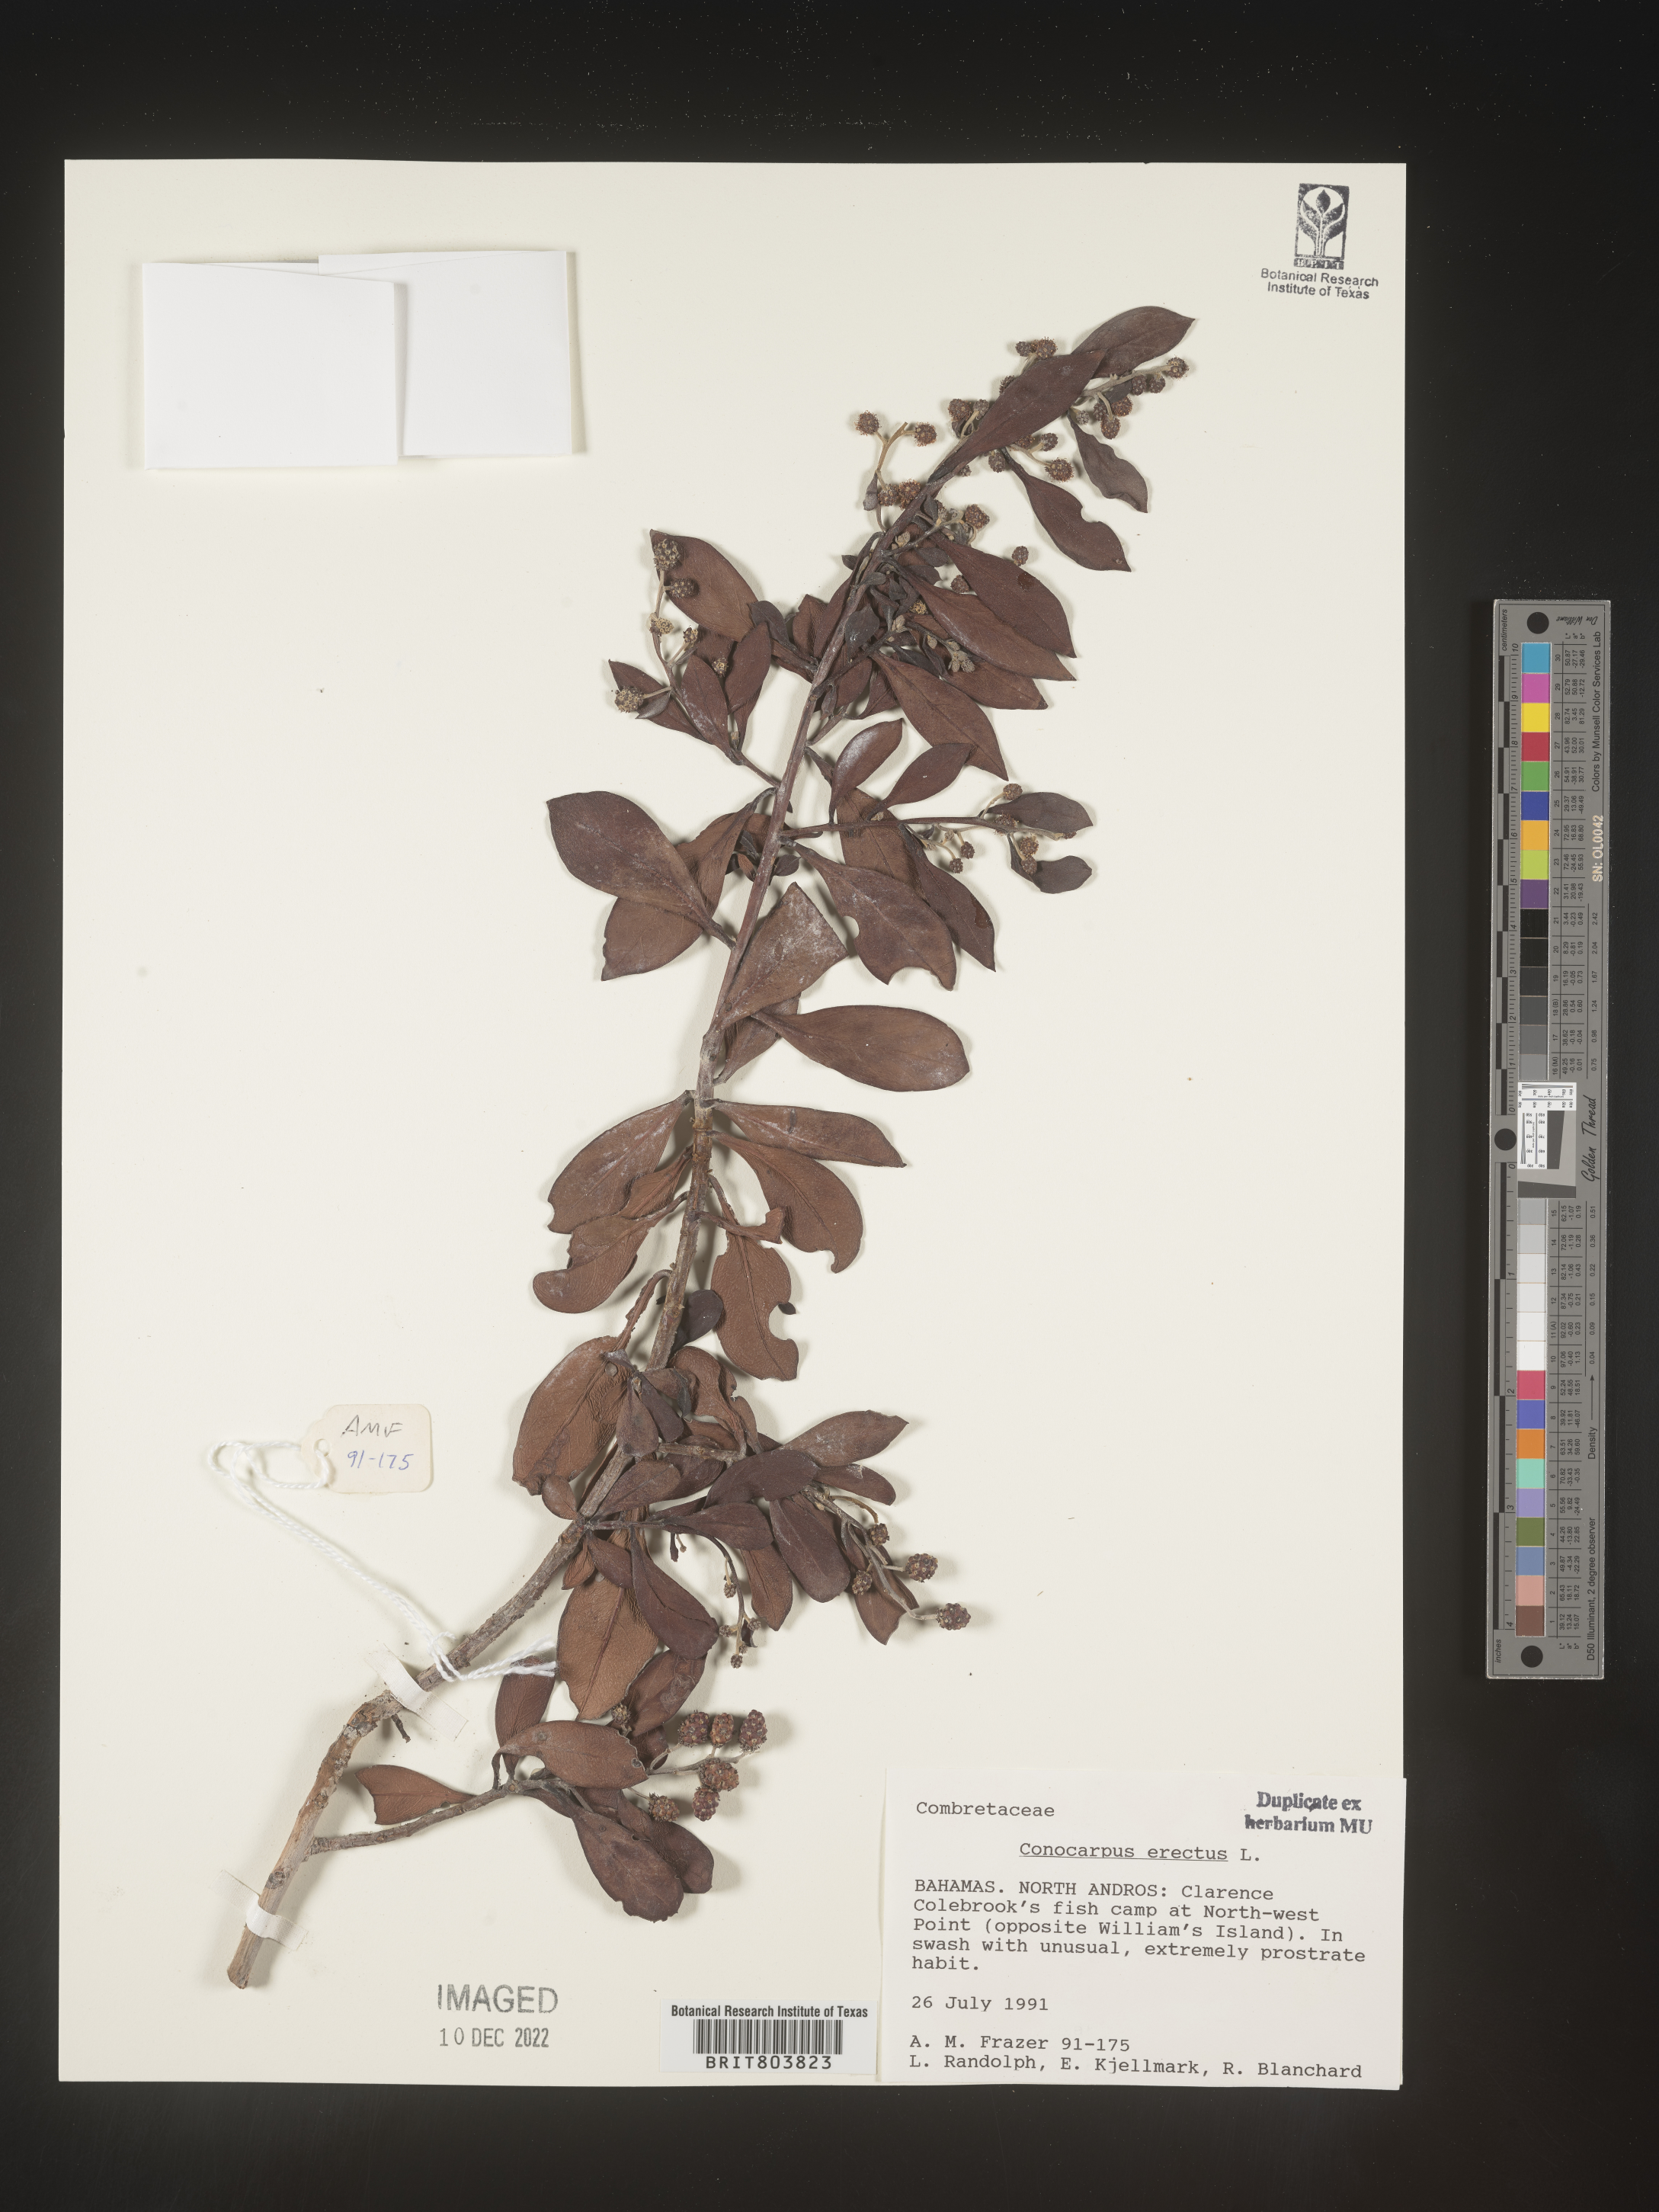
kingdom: Plantae
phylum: Tracheophyta
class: Magnoliopsida
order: Myrtales
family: Combretaceae
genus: Conocarpus
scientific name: Conocarpus
